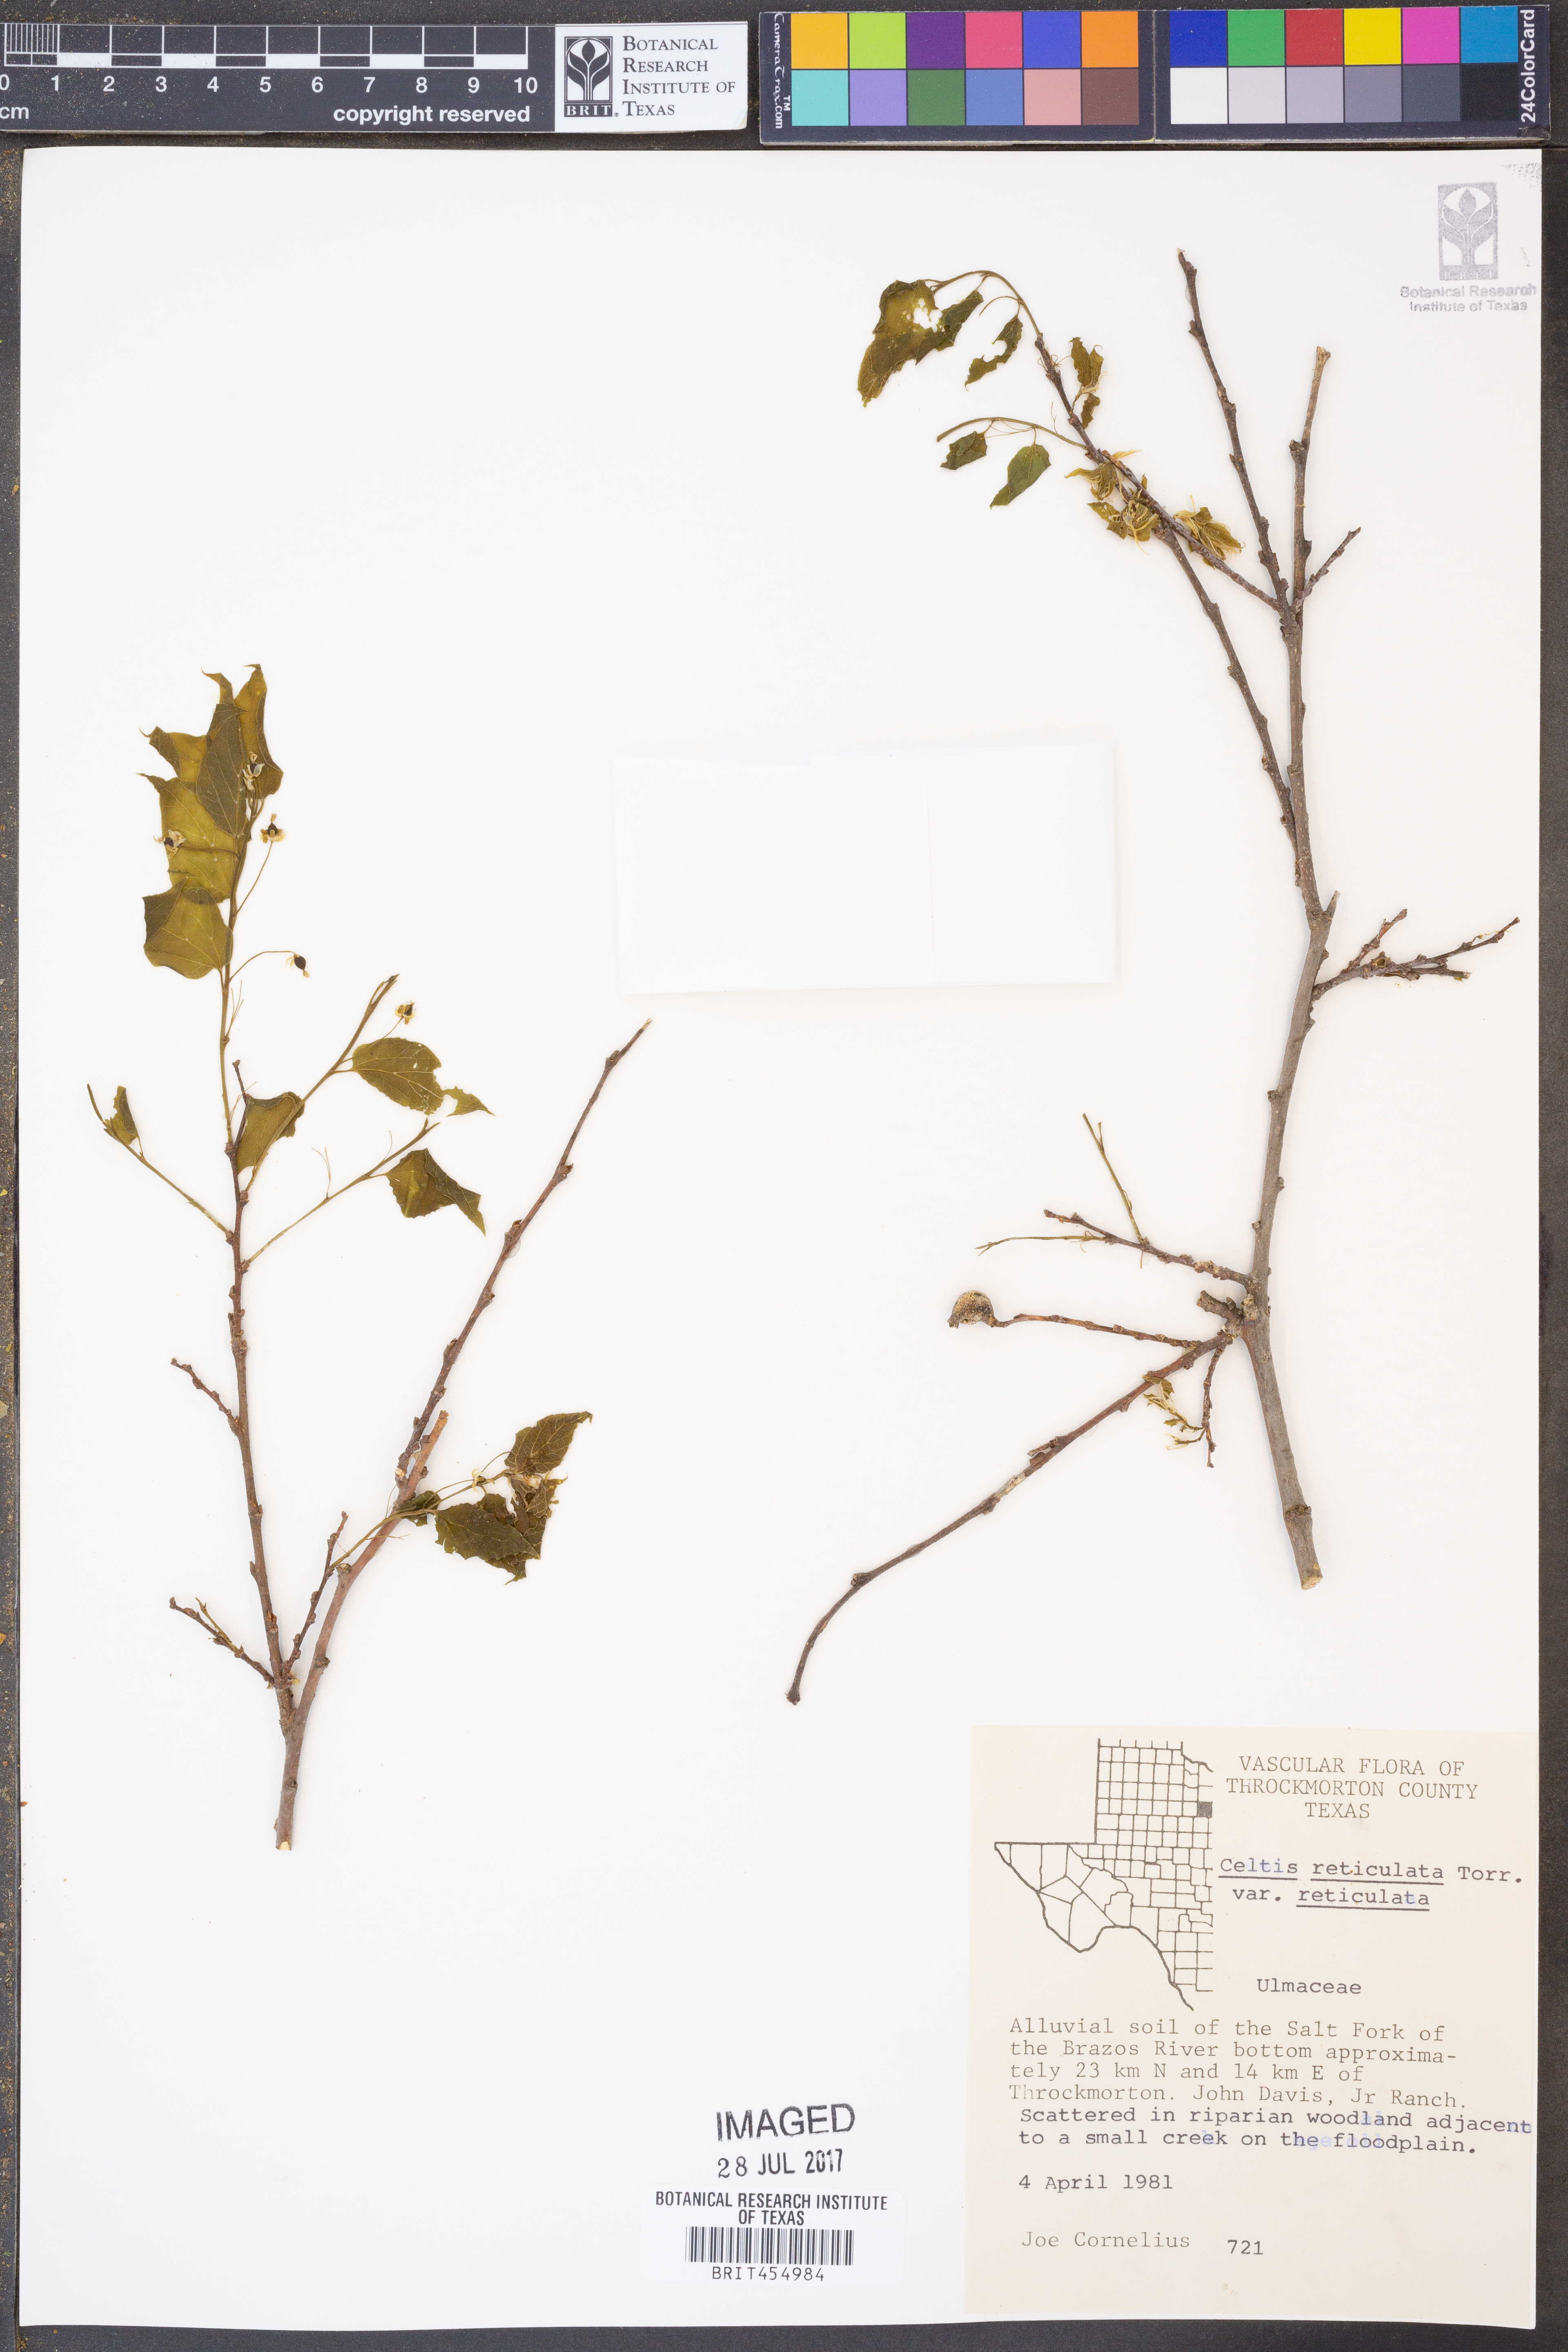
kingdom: Plantae
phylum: Tracheophyta
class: Magnoliopsida
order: Rosales
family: Cannabaceae
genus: Celtis
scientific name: Celtis reticulata
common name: Netleaf hackberry
